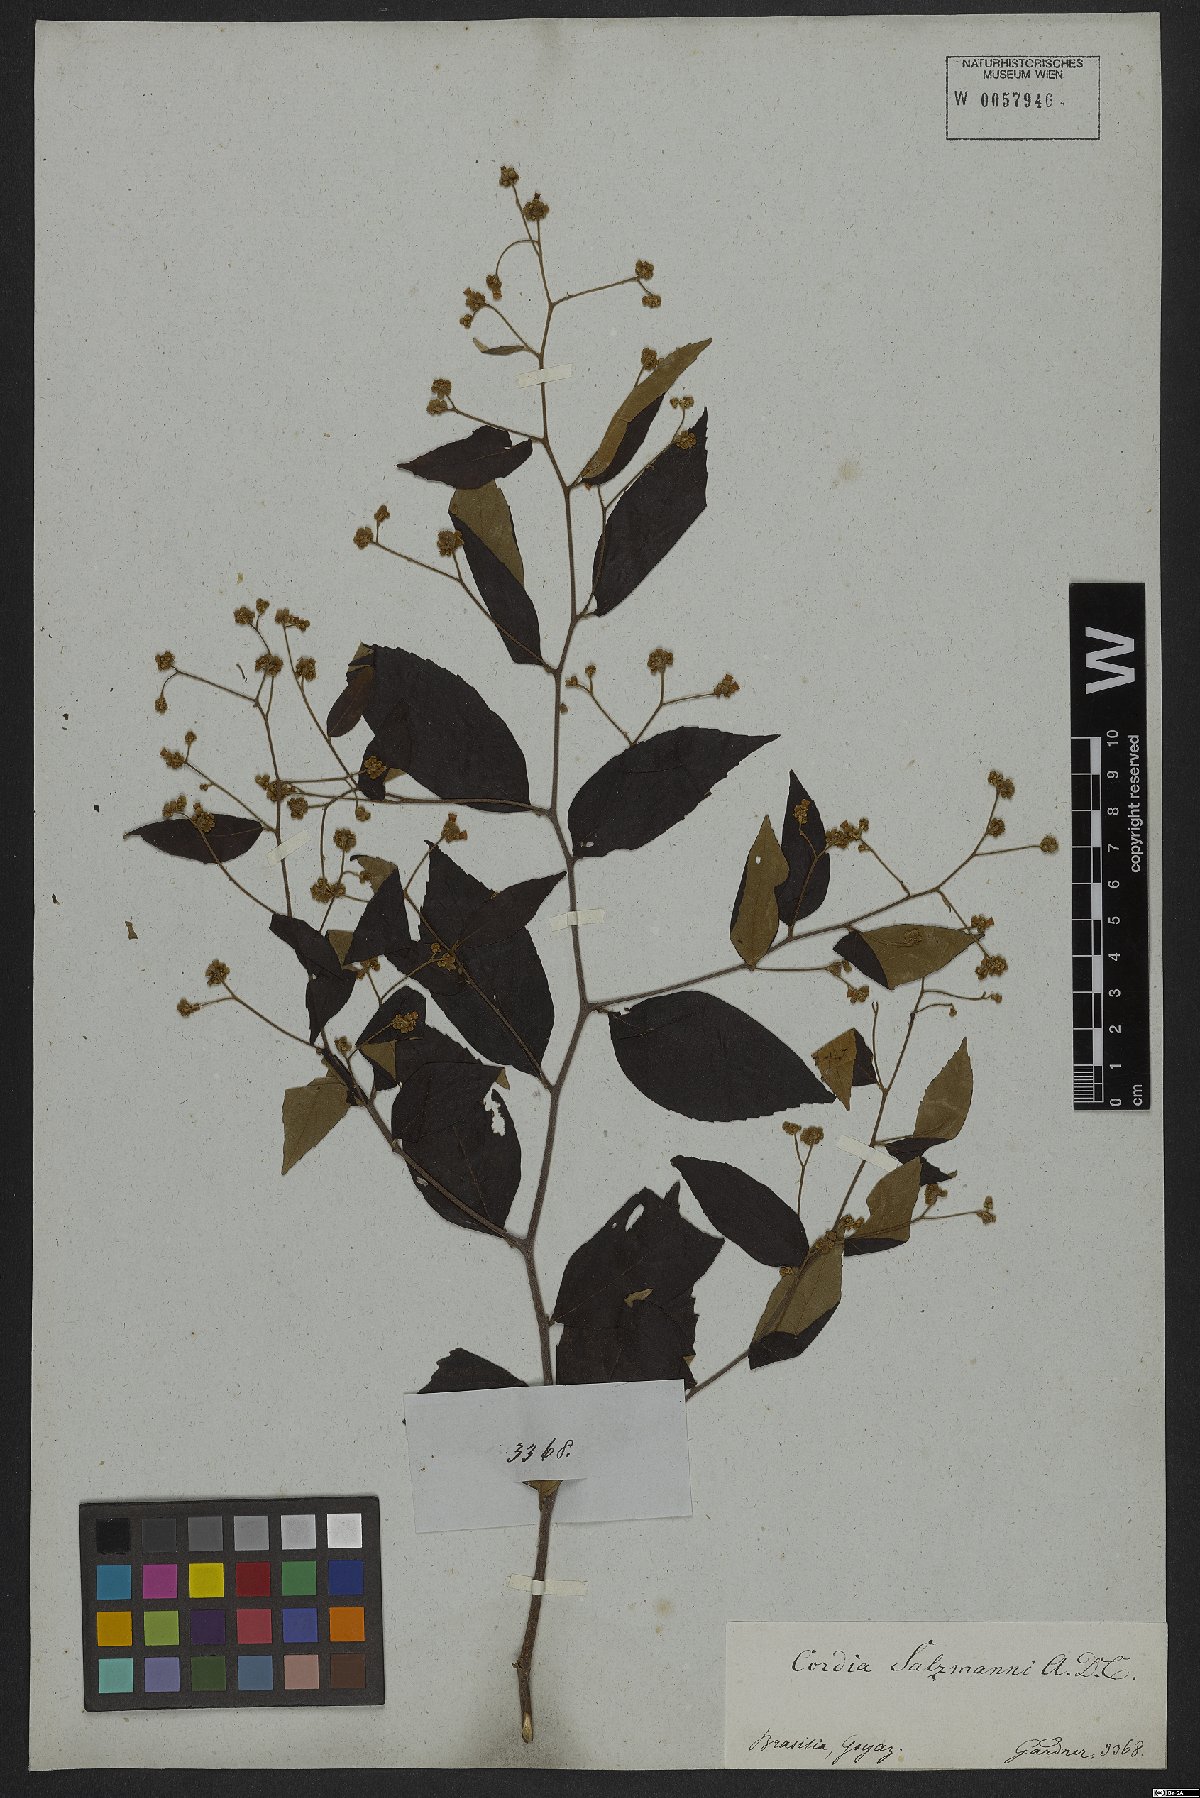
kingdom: Plantae
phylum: Tracheophyta
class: Magnoliopsida
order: Boraginales
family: Cordiaceae
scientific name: Cordiaceae
